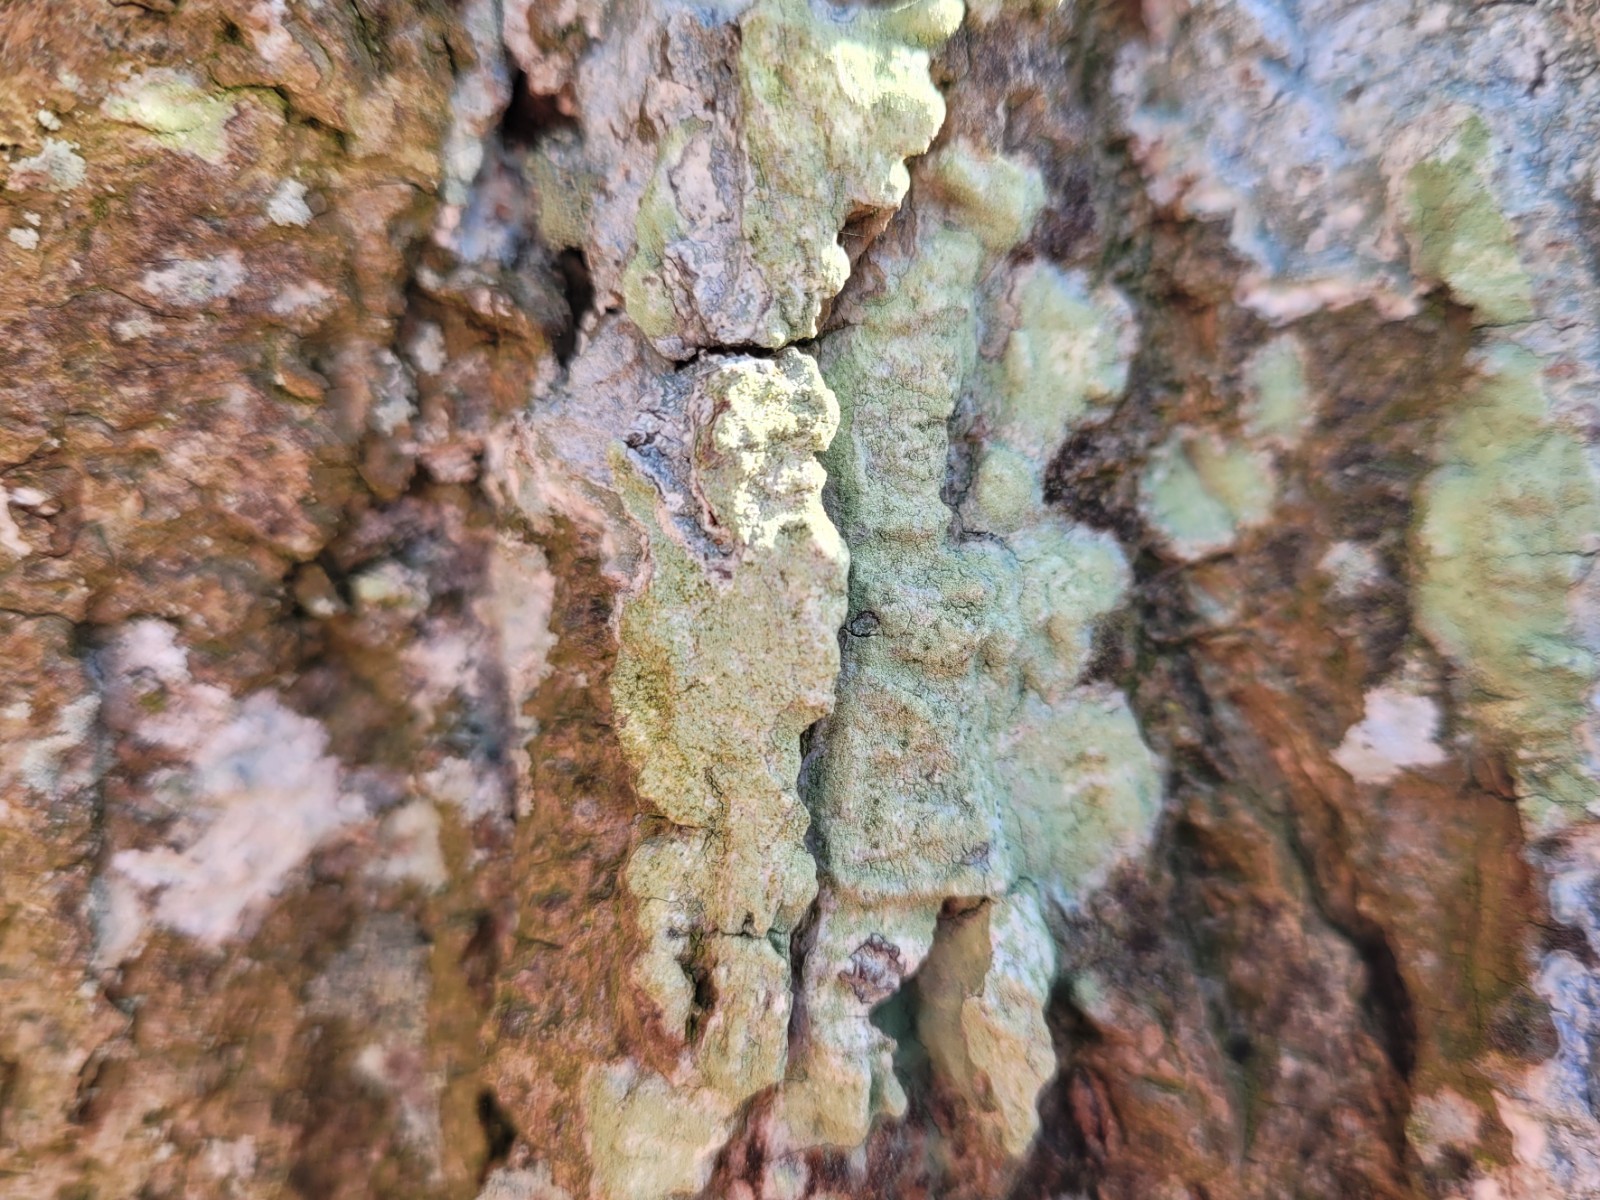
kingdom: Fungi
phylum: Ascomycota
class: Lecanoromycetes
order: Lecanorales
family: Lecanoraceae
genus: Lecanora
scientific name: Lecanora expallens
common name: bleggul kantskivelav
